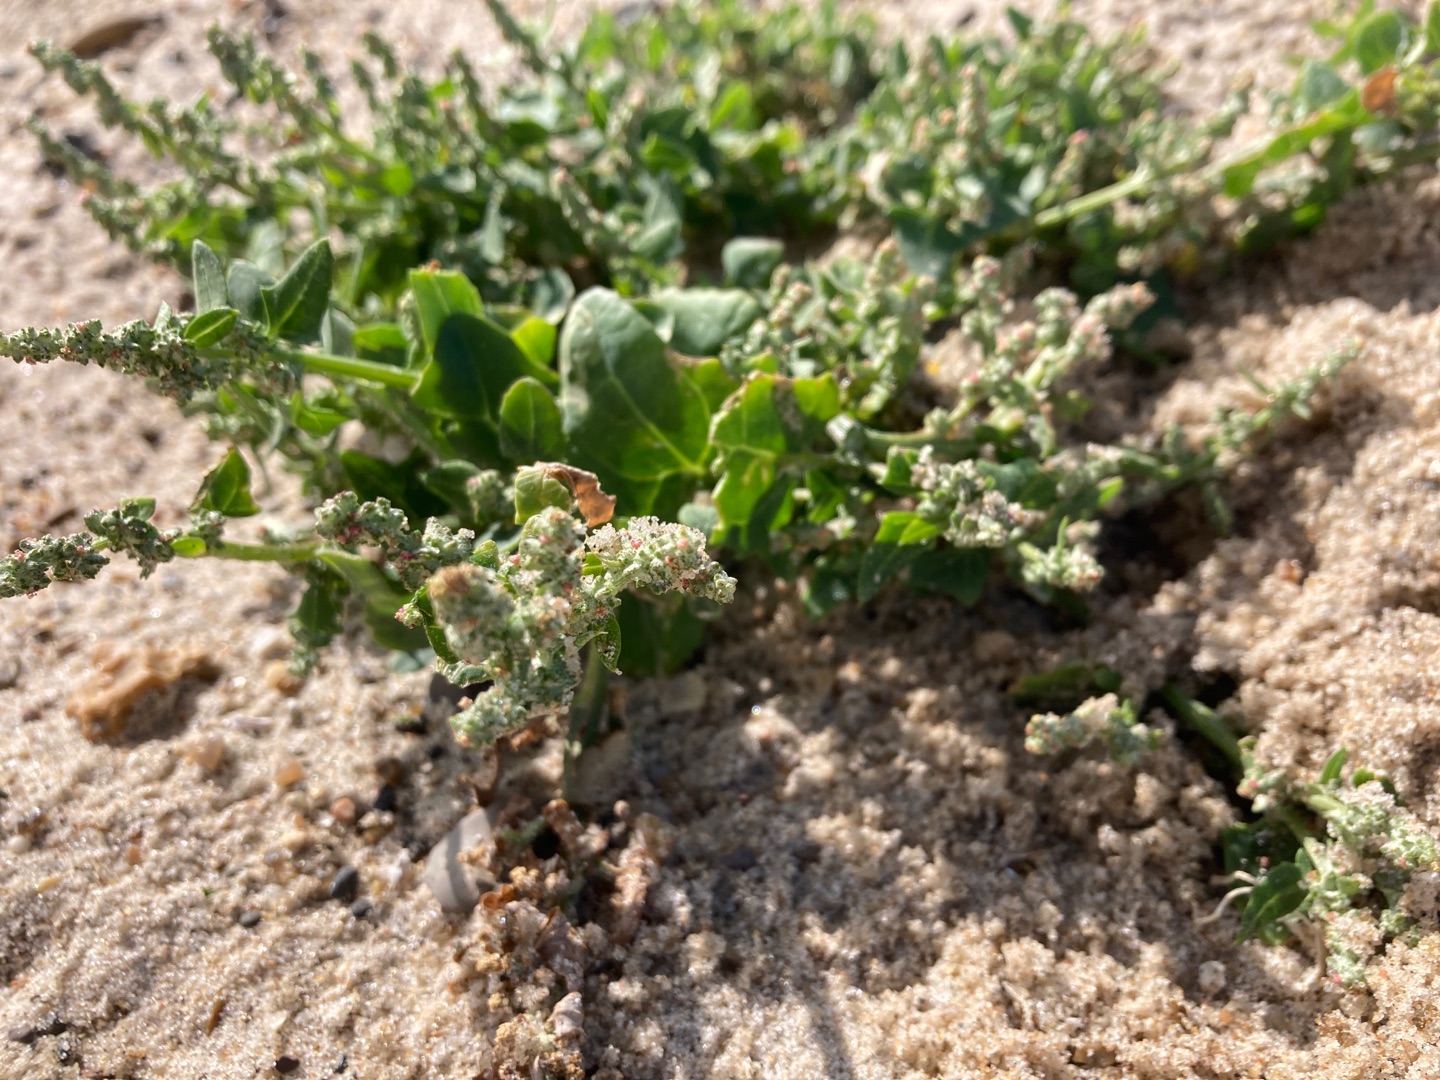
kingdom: Plantae
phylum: Tracheophyta
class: Magnoliopsida
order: Caryophyllales
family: Amaranthaceae
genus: Atriplex
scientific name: Atriplex prostrata
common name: Spyd-mælde
